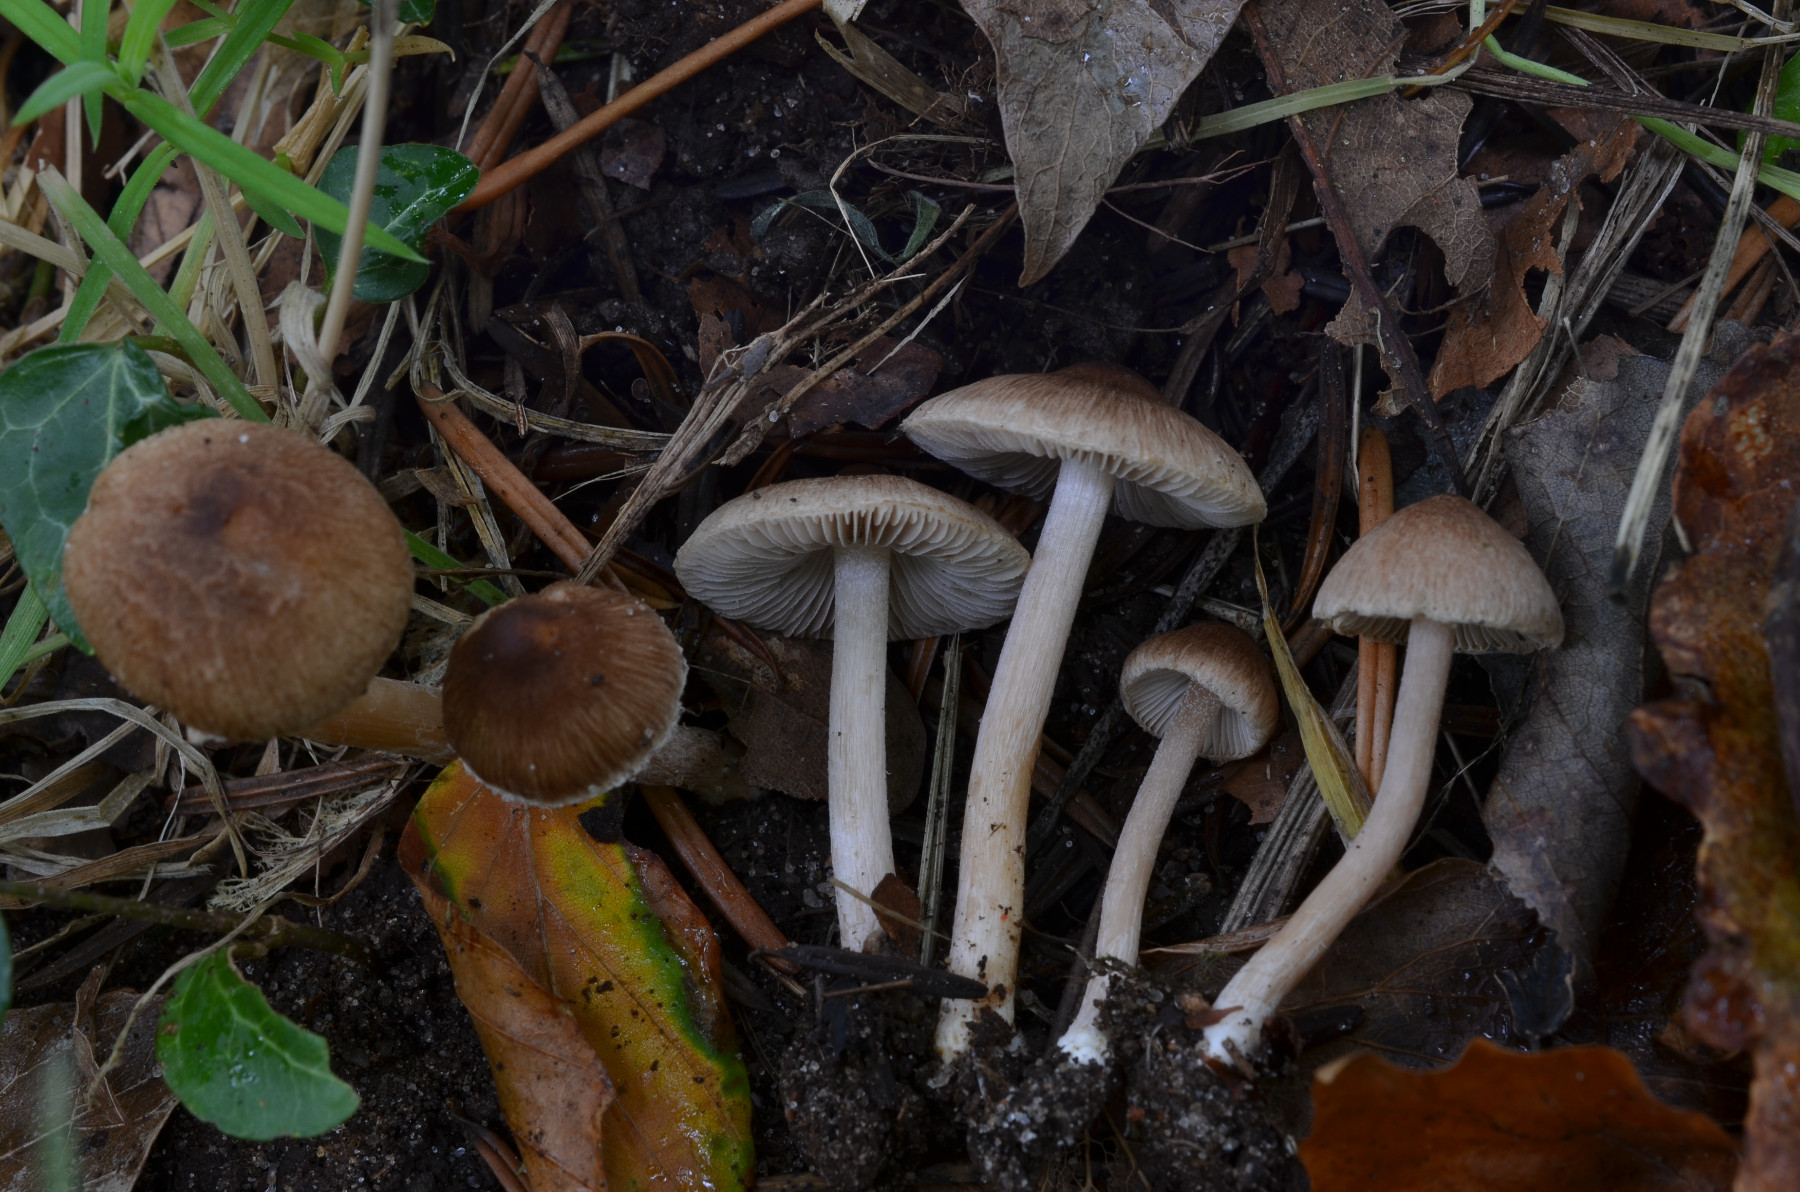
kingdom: Fungi
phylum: Basidiomycota
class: Agaricomycetes
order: Agaricales
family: Inocybaceae
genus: Inocybe
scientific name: Inocybe fuscidula
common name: brunfibret trævlhat
